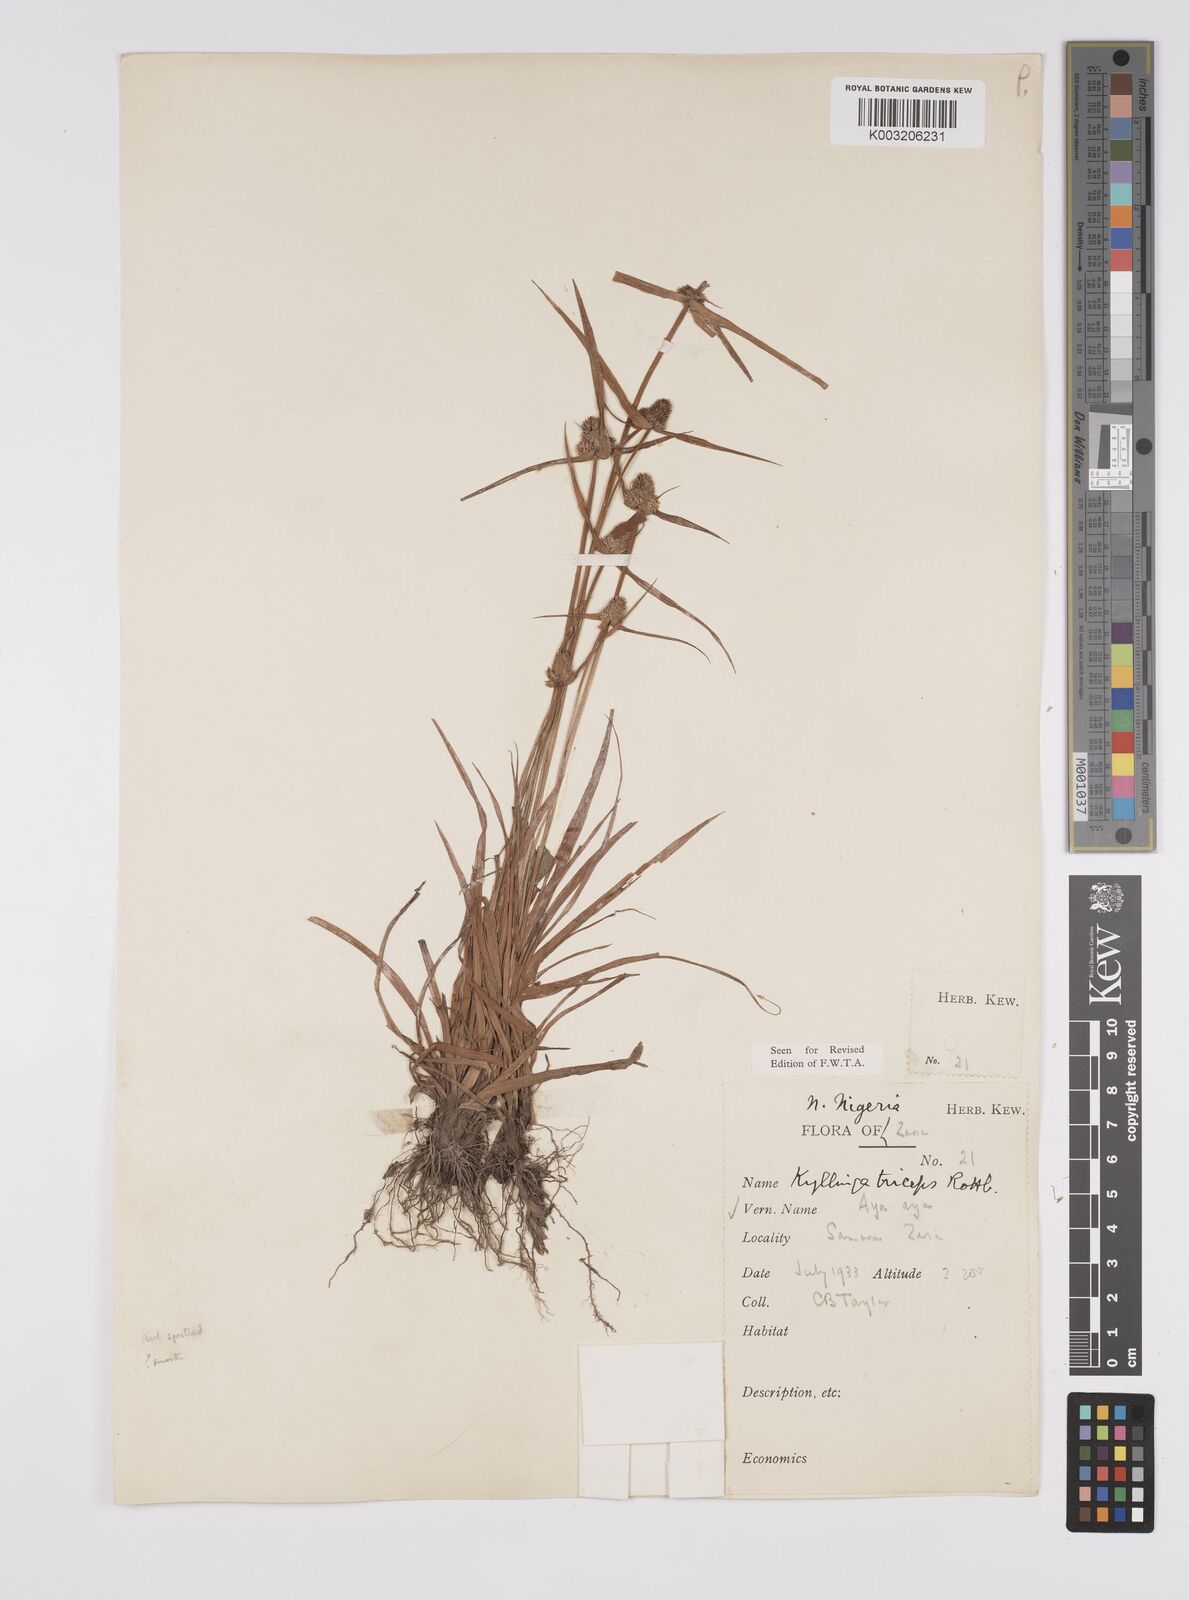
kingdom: Plantae
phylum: Tracheophyta
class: Liliopsida
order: Poales
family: Cyperaceae
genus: Cyperus
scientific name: Cyperus
